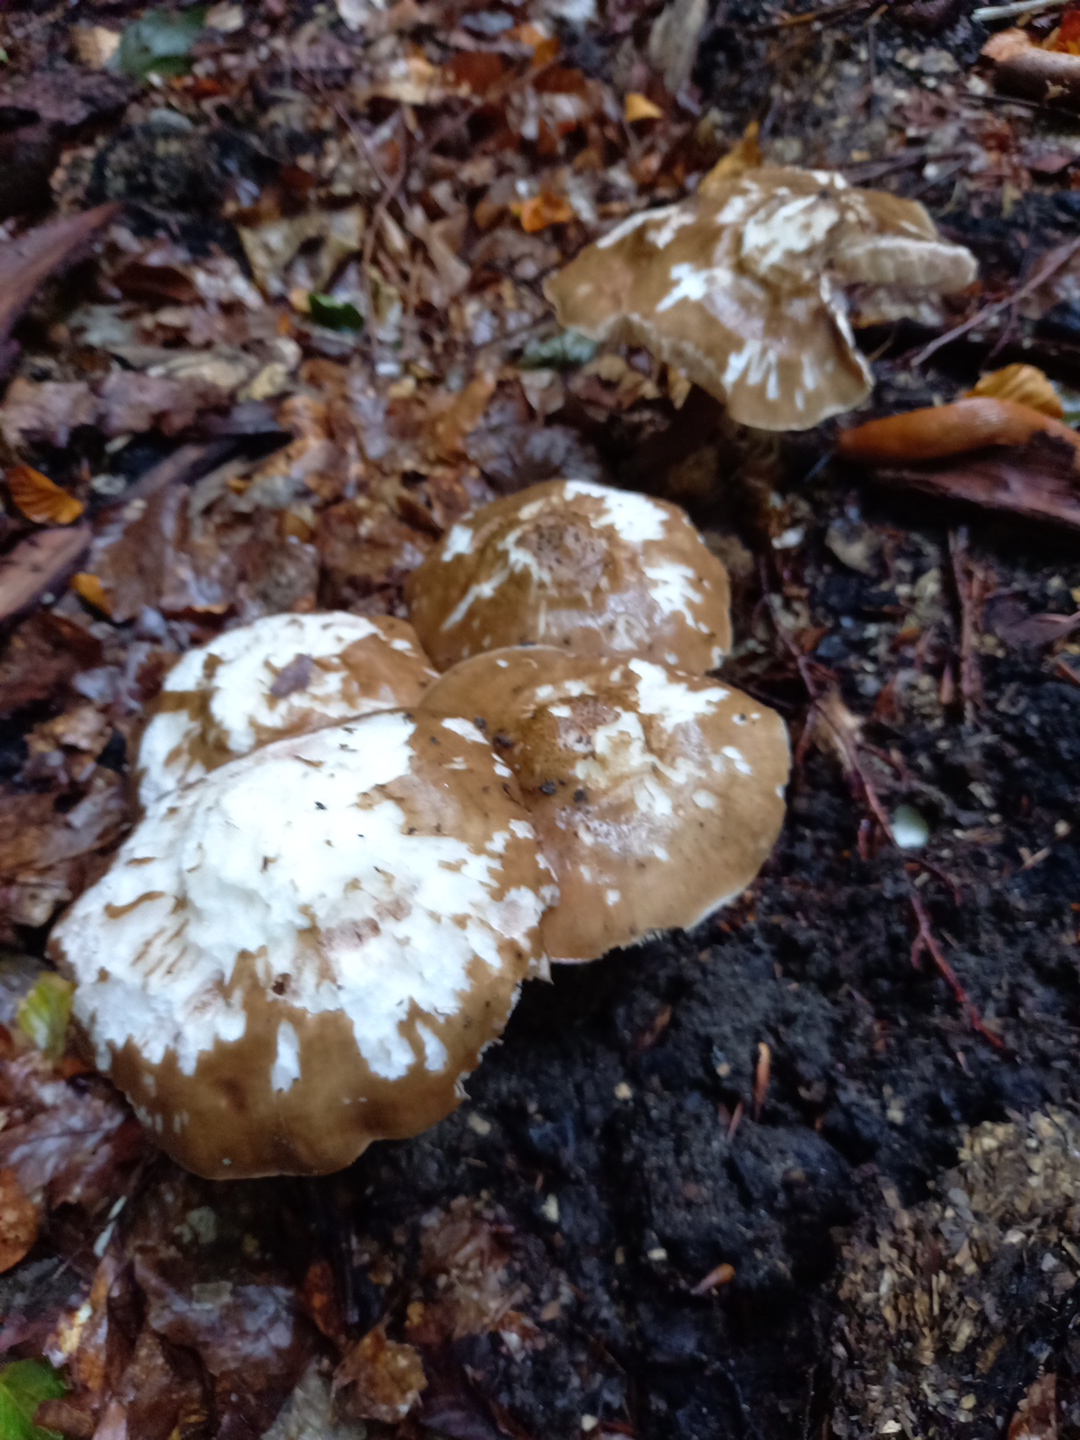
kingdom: Fungi
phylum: Basidiomycota
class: Agaricomycetes
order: Agaricales
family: Pluteaceae
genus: Pluteus
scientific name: Pluteus cervinus
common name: sodfarvet skærmhat
